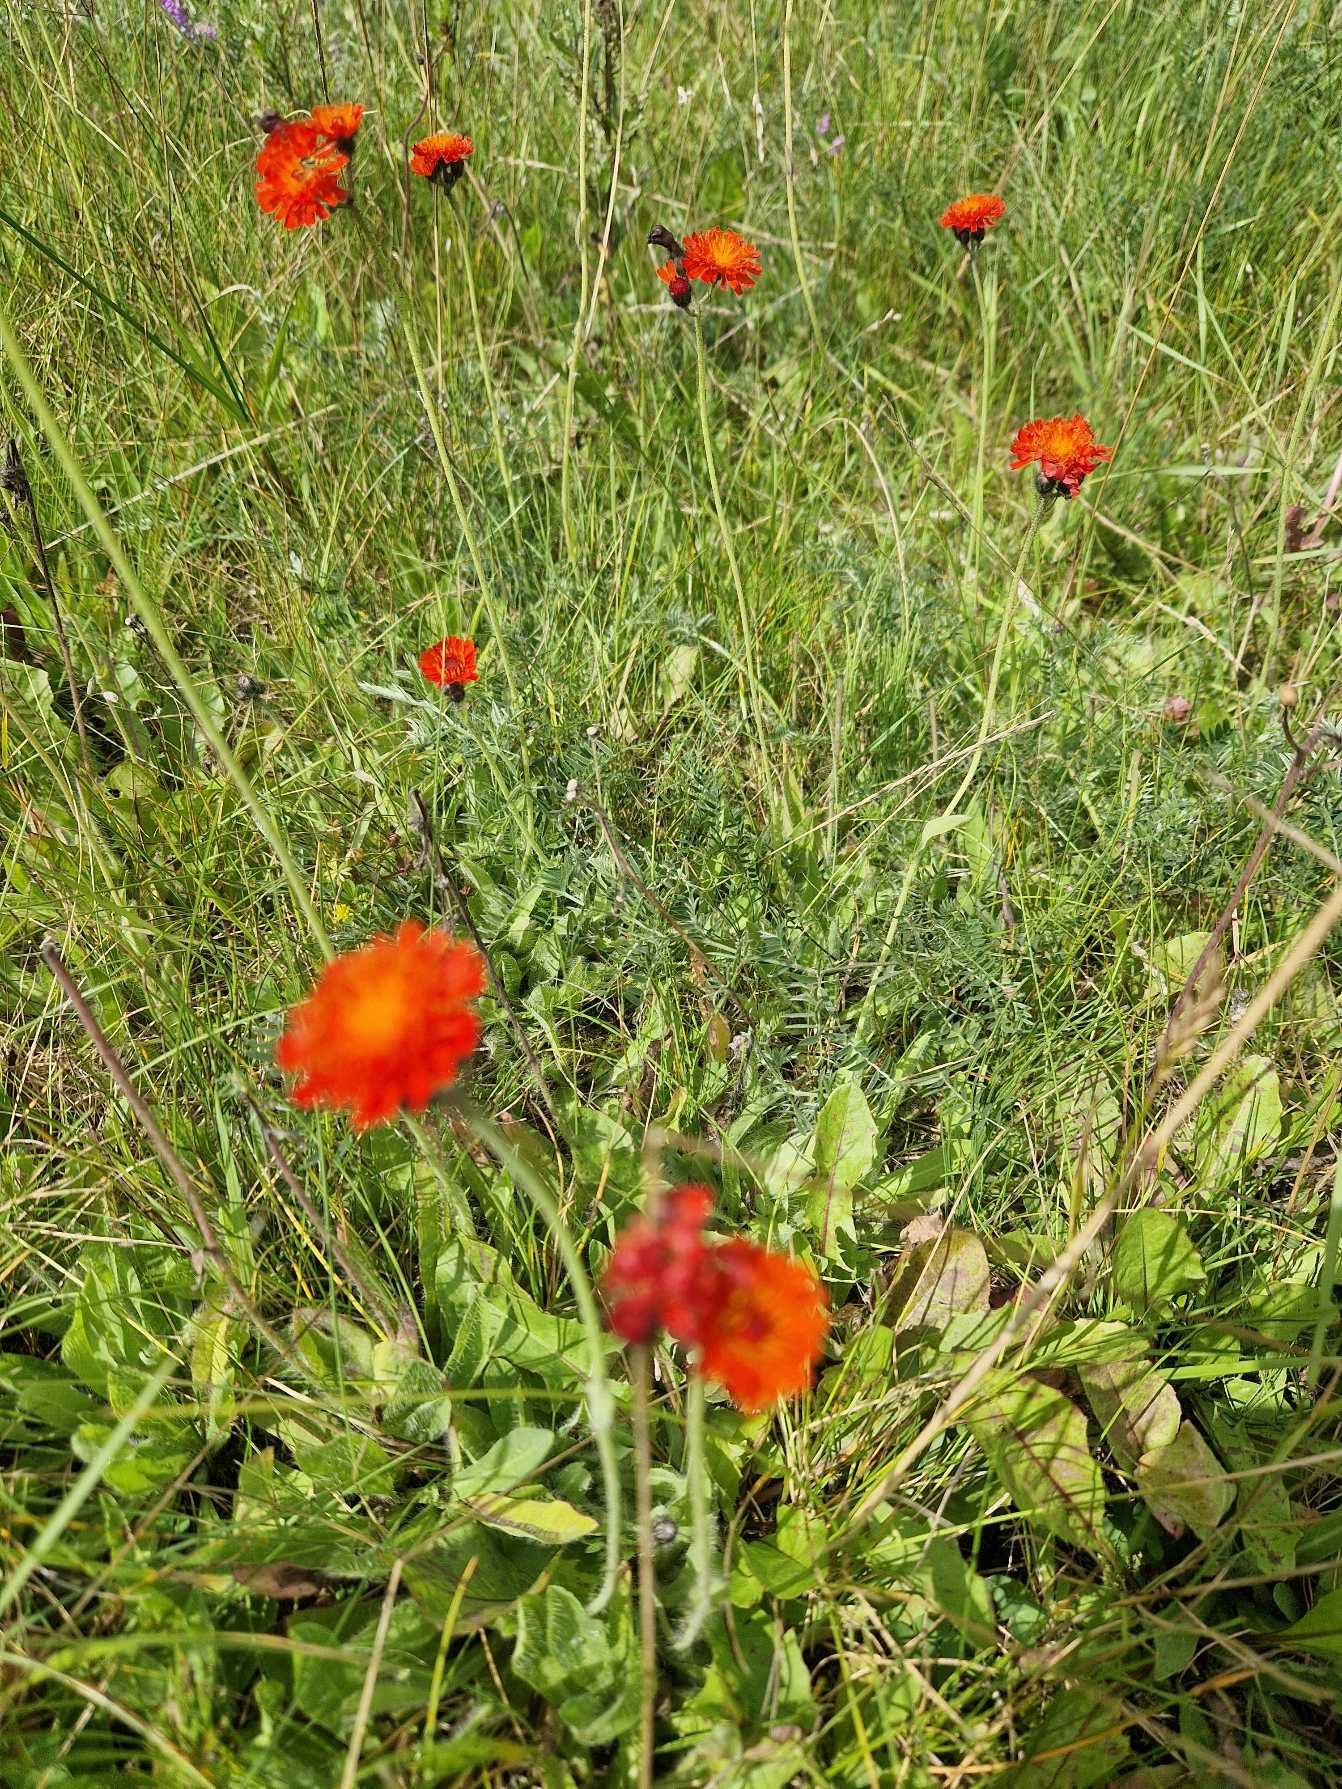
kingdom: Plantae
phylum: Tracheophyta
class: Magnoliopsida
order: Asterales
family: Asteraceae
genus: Pilosella
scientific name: Pilosella aurantiaca
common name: Pomerans-høgeurt
